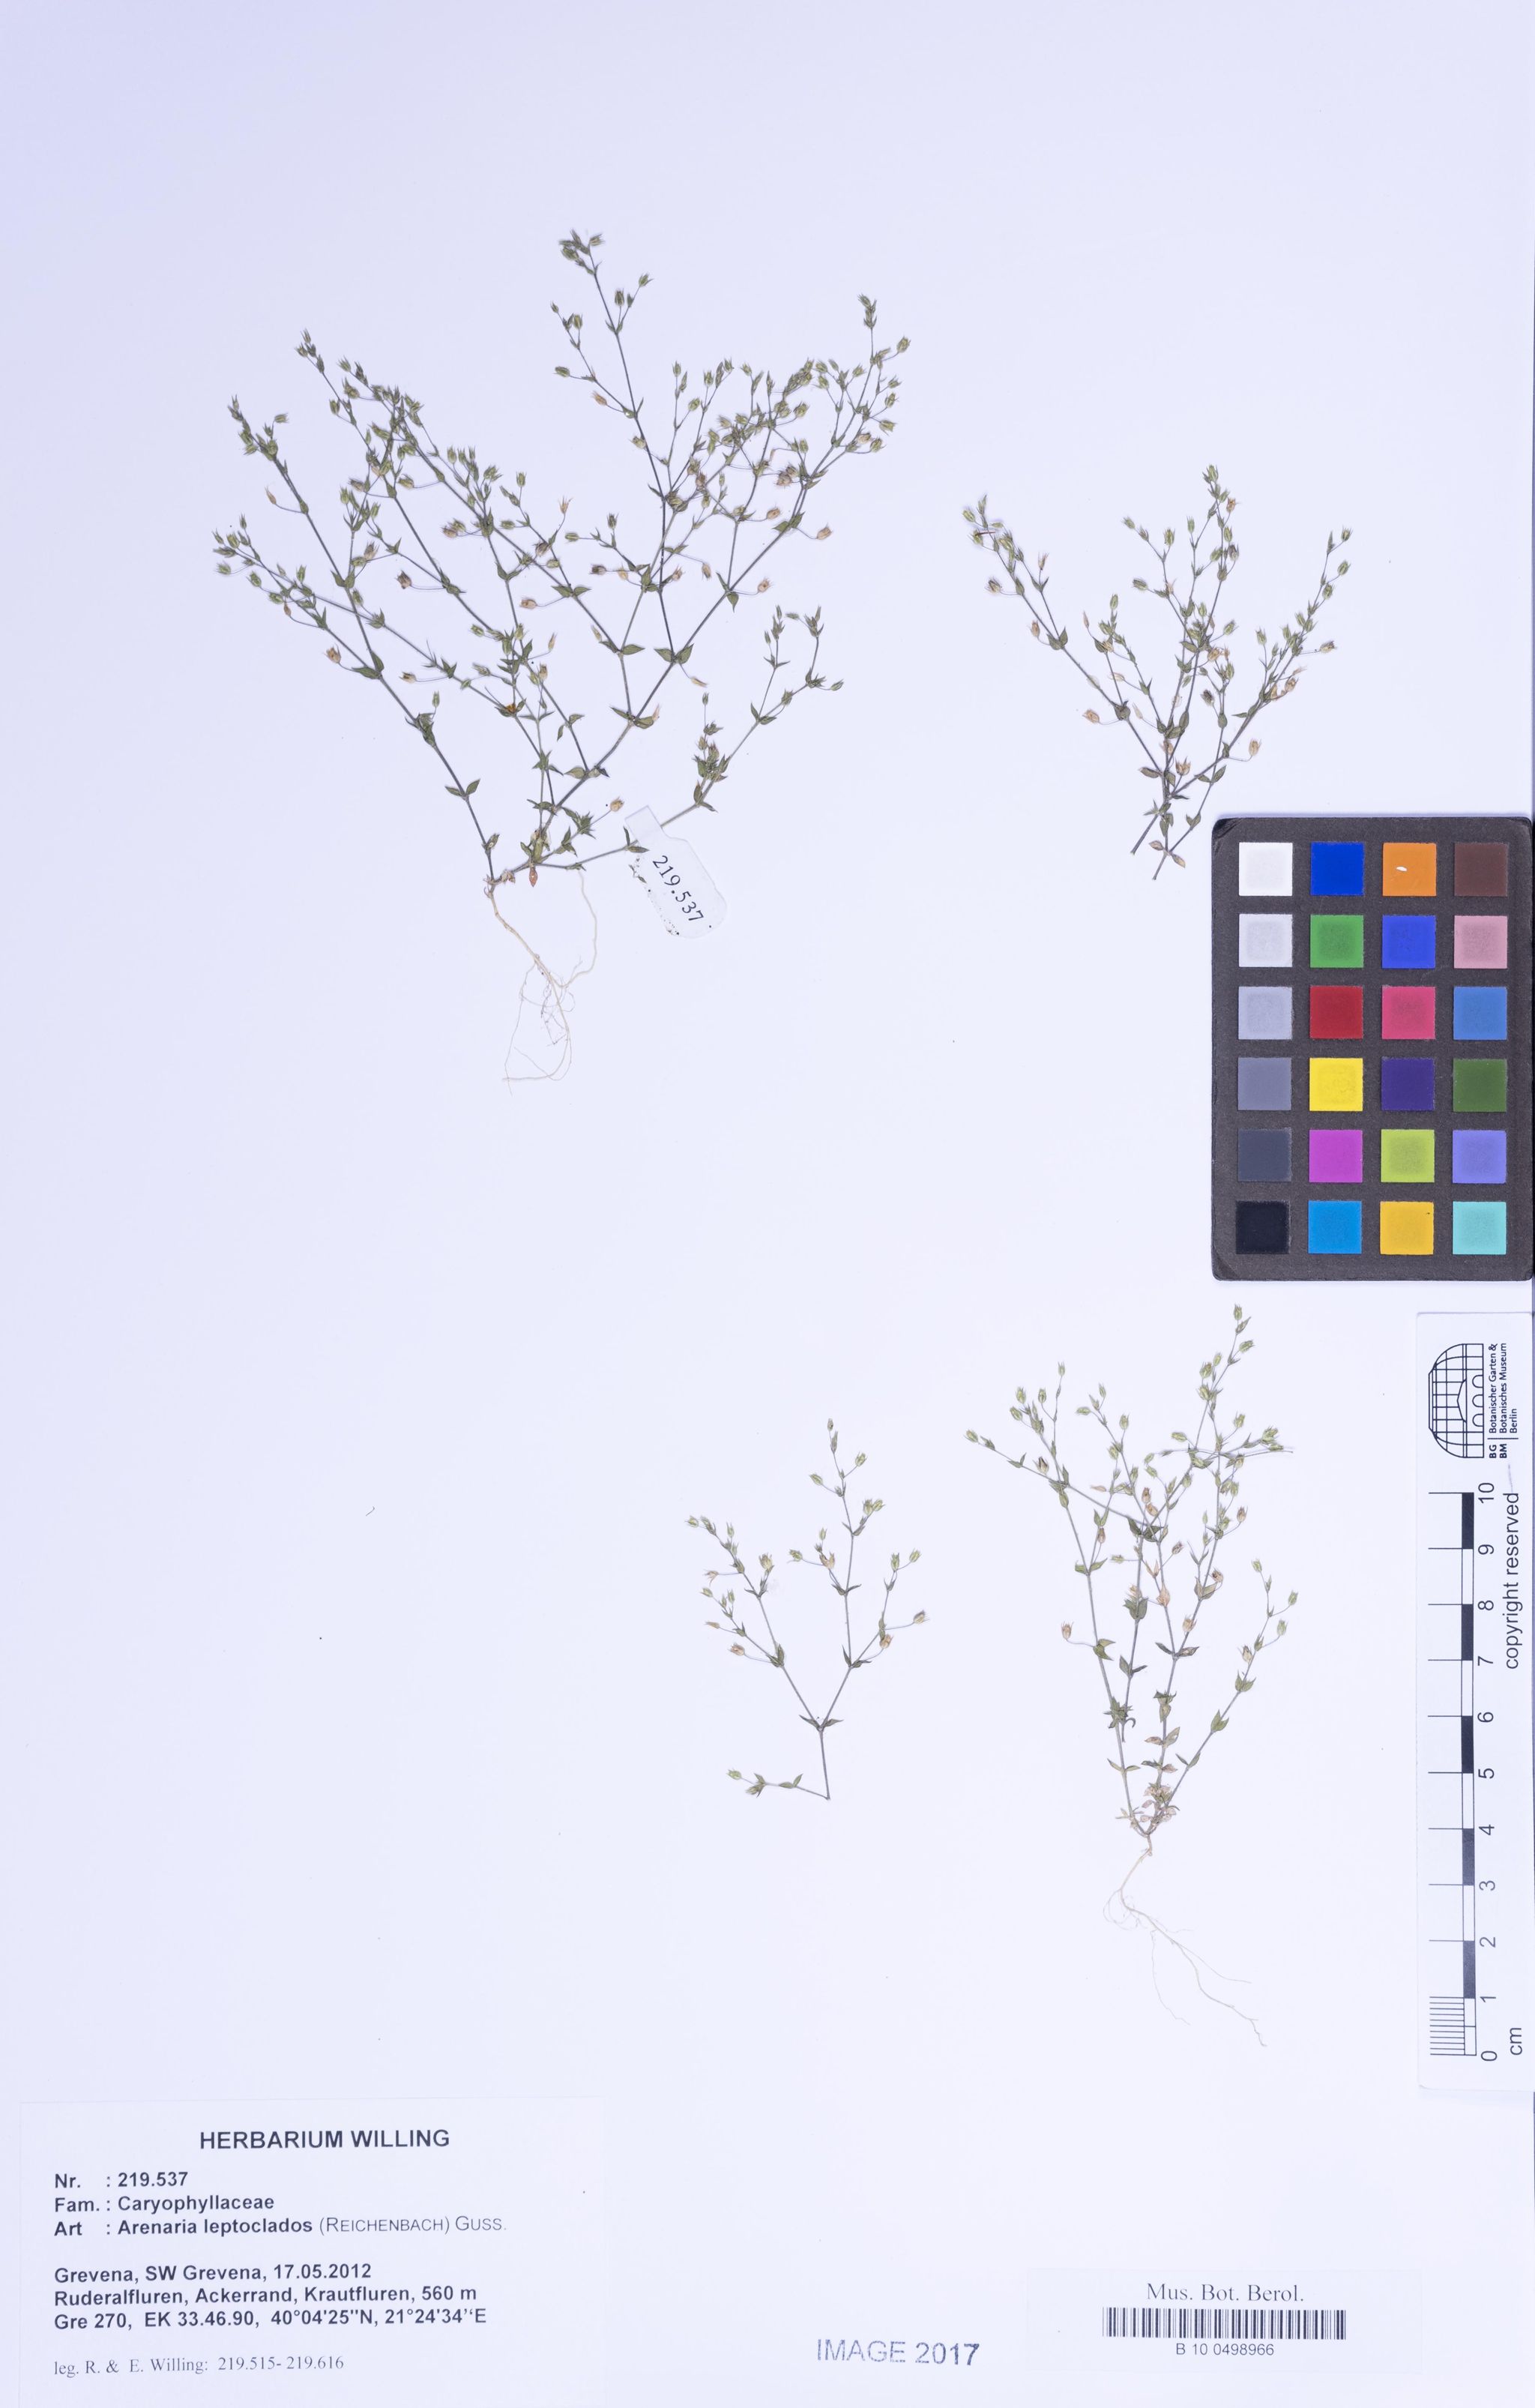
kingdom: Plantae
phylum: Tracheophyta
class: Magnoliopsida
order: Caryophyllales
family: Caryophyllaceae
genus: Arenaria
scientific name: Arenaria leptoclados
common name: Thyme-leaved sandwort
